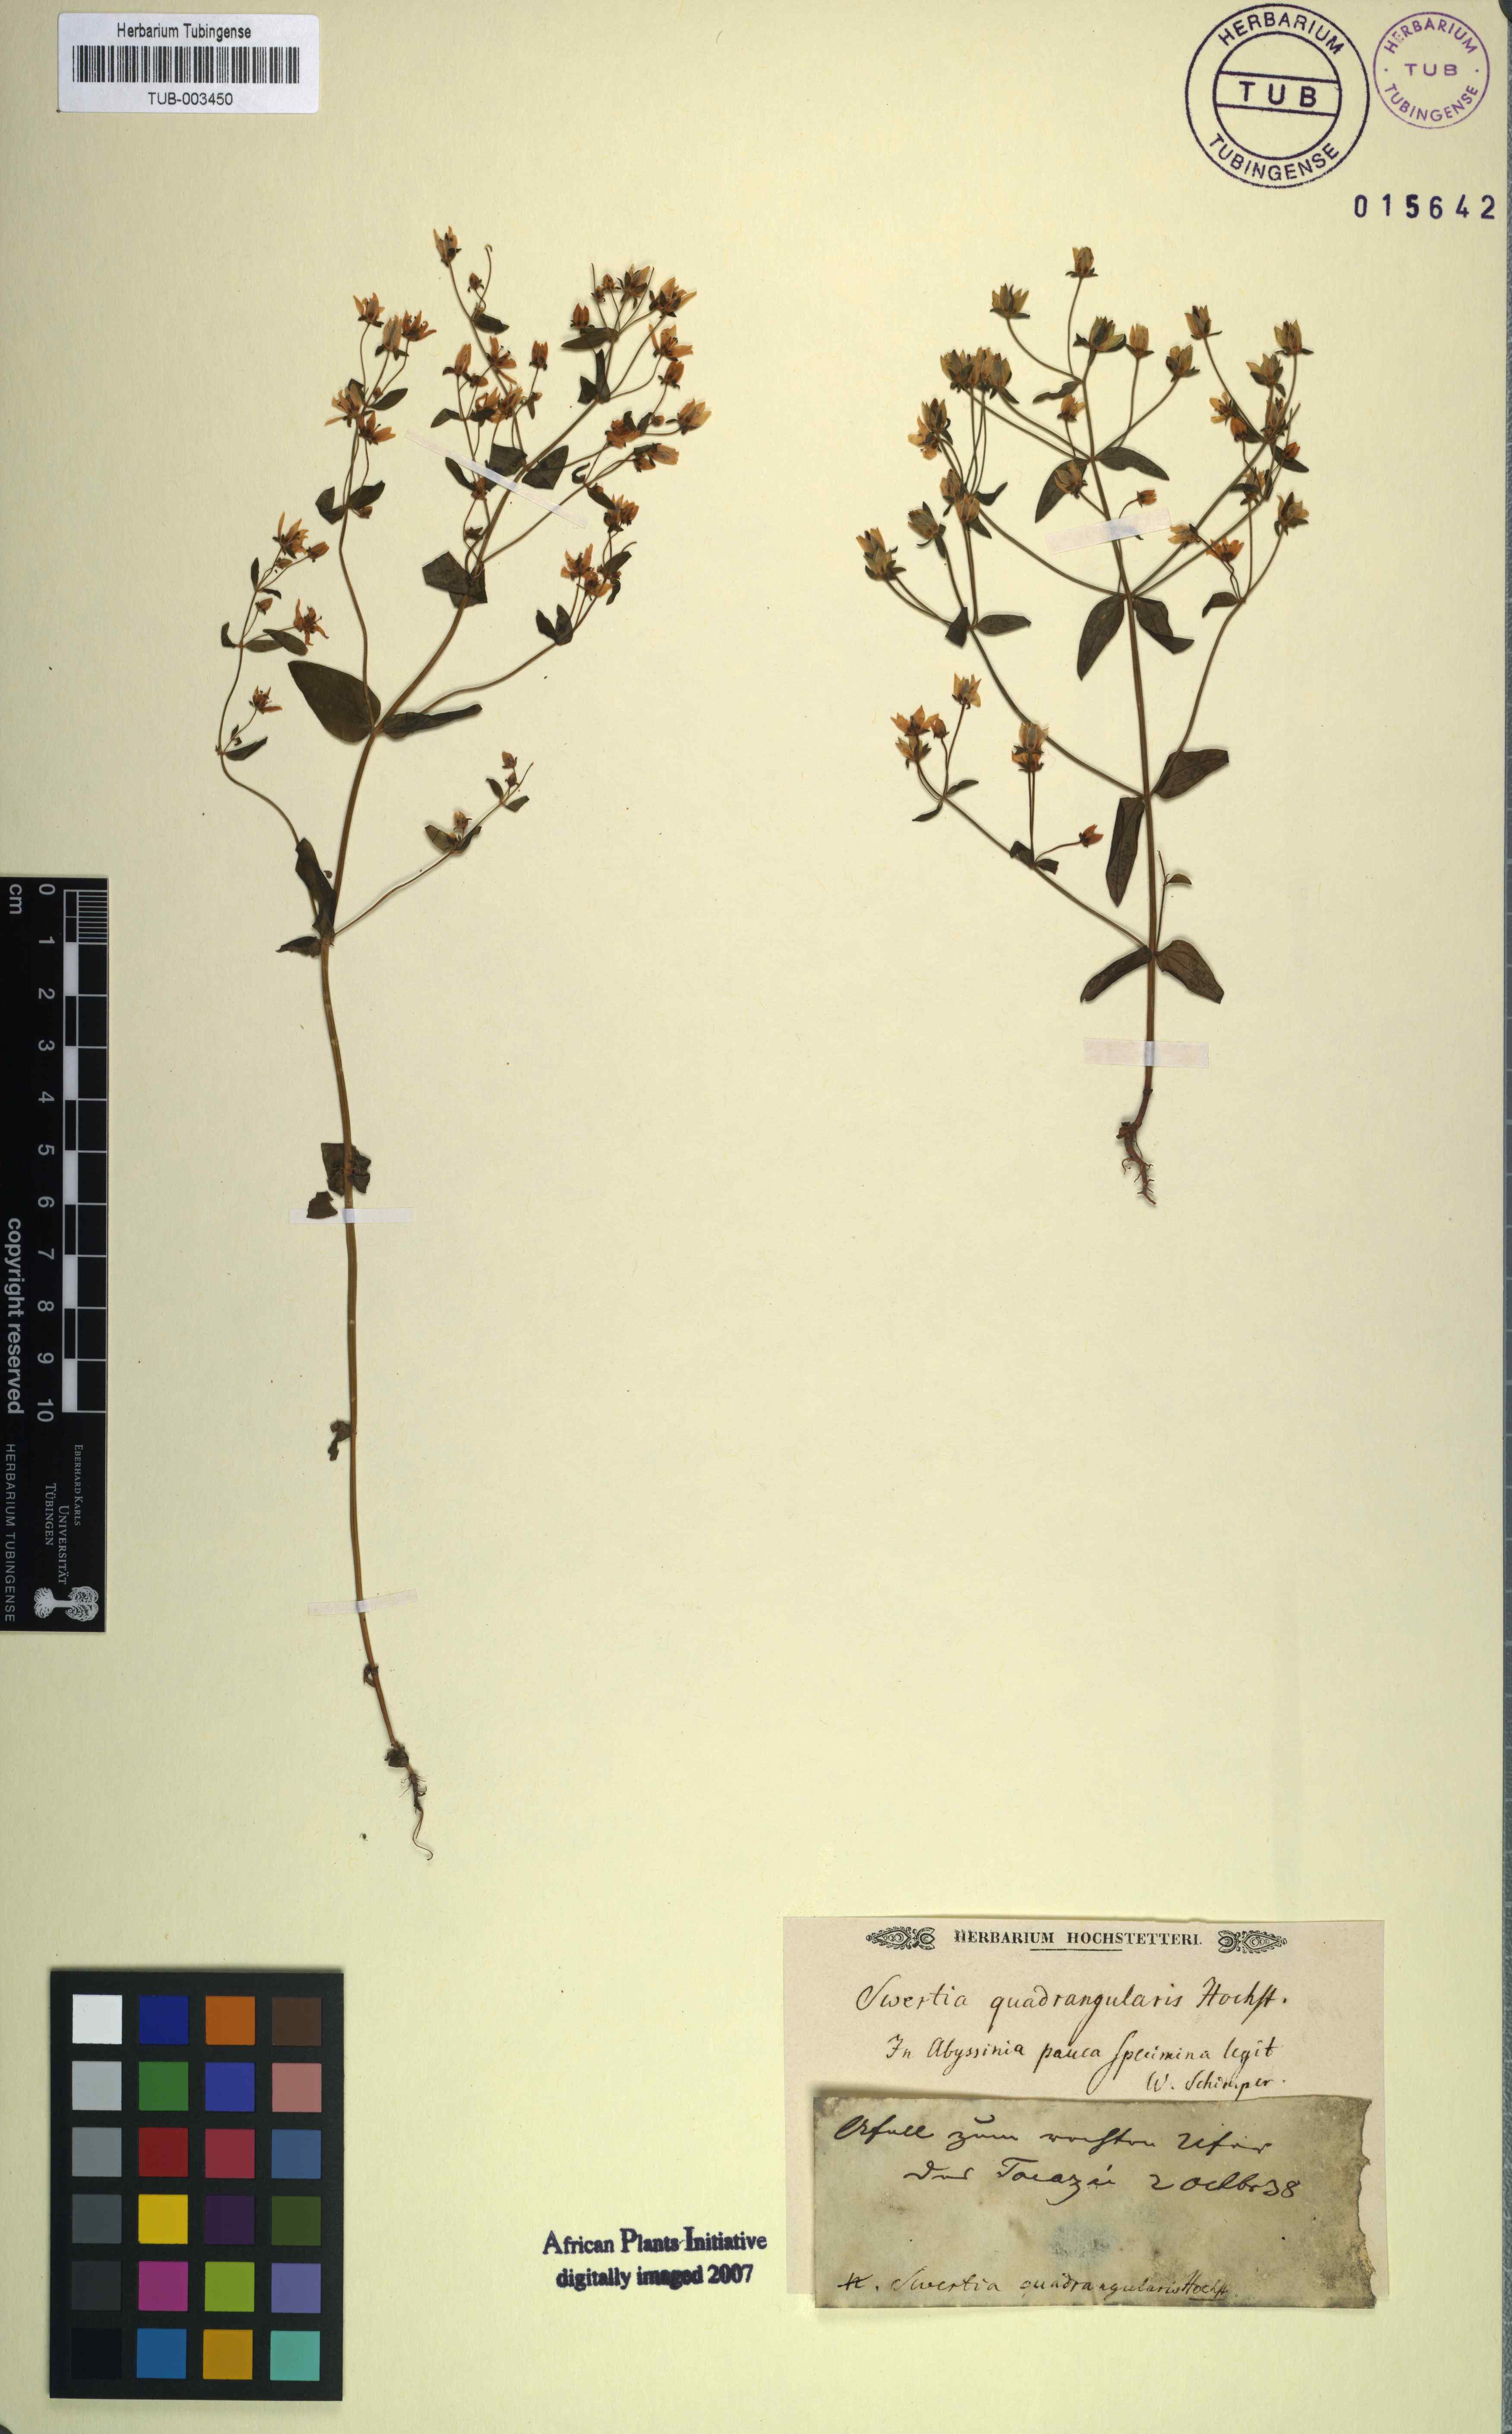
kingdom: Plantae
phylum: Tracheophyta
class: Magnoliopsida
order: Gentianales
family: Gentianaceae
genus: Swertia
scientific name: Swertia
